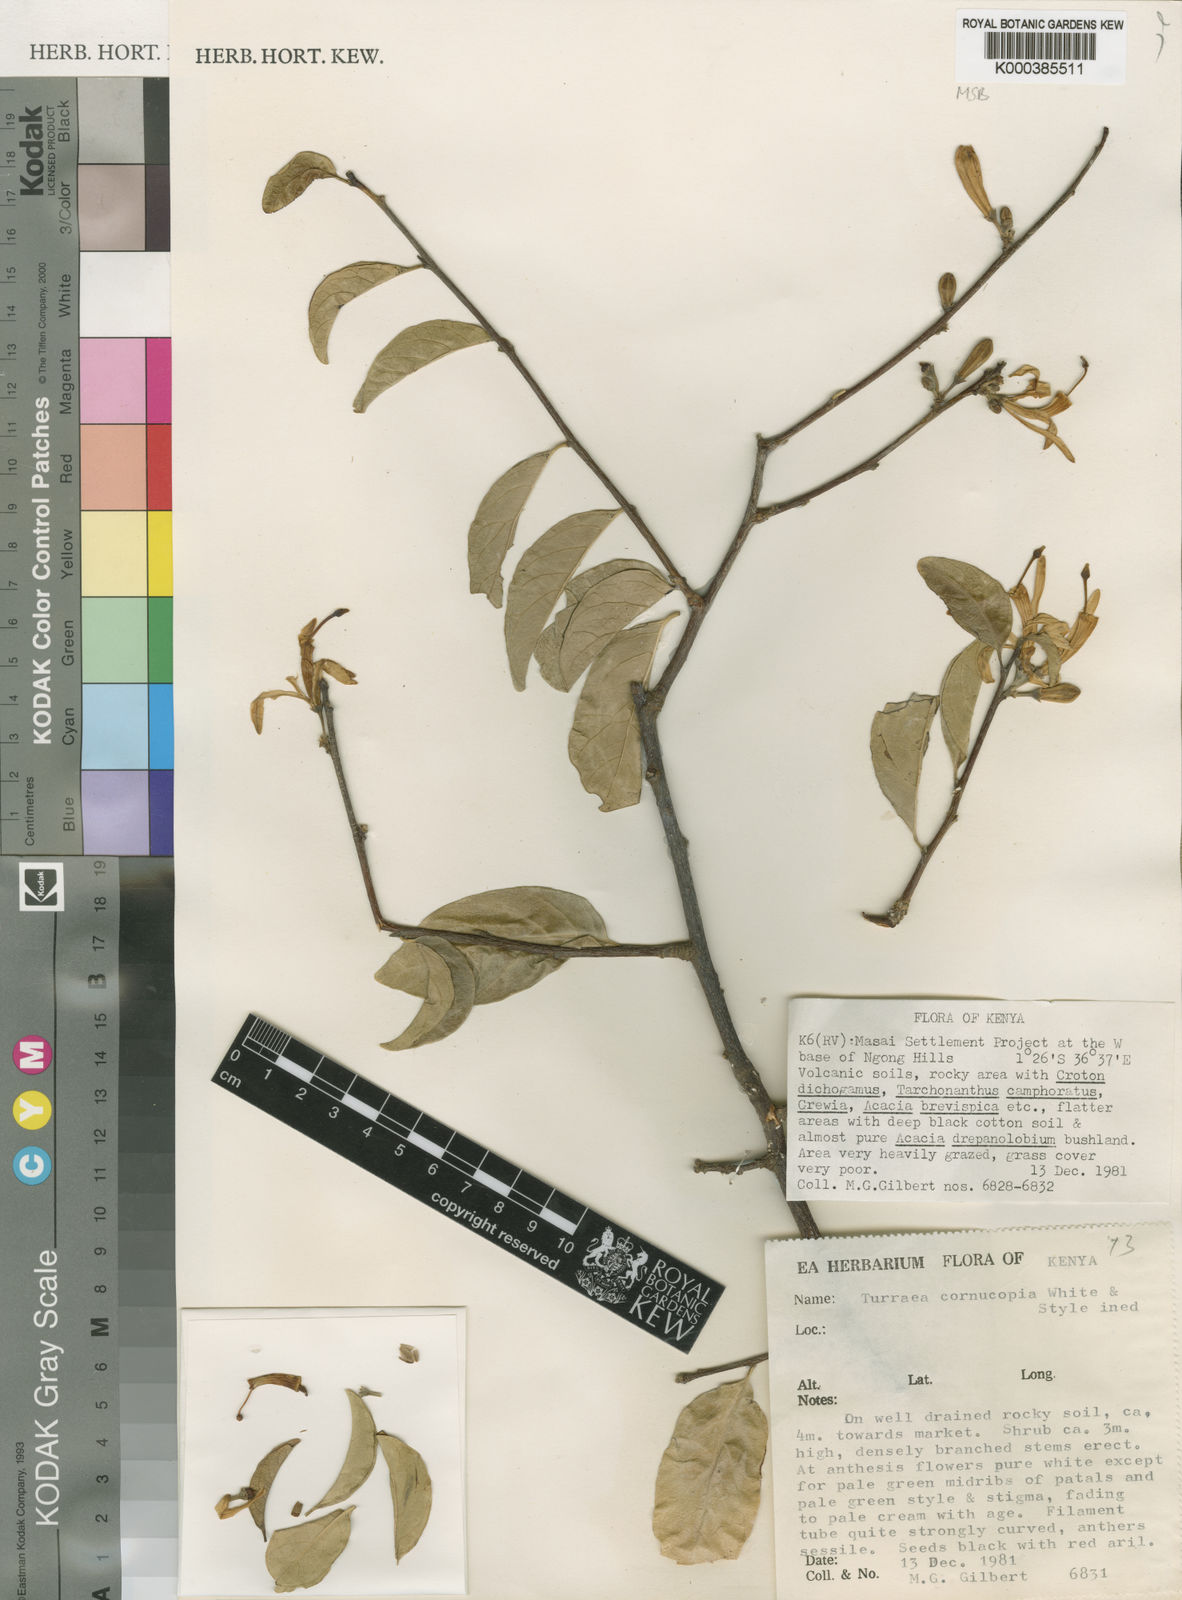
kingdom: Plantae
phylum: Tracheophyta
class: Magnoliopsida
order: Sapindales
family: Meliaceae
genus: Turraea
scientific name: Turraea cornucopia
